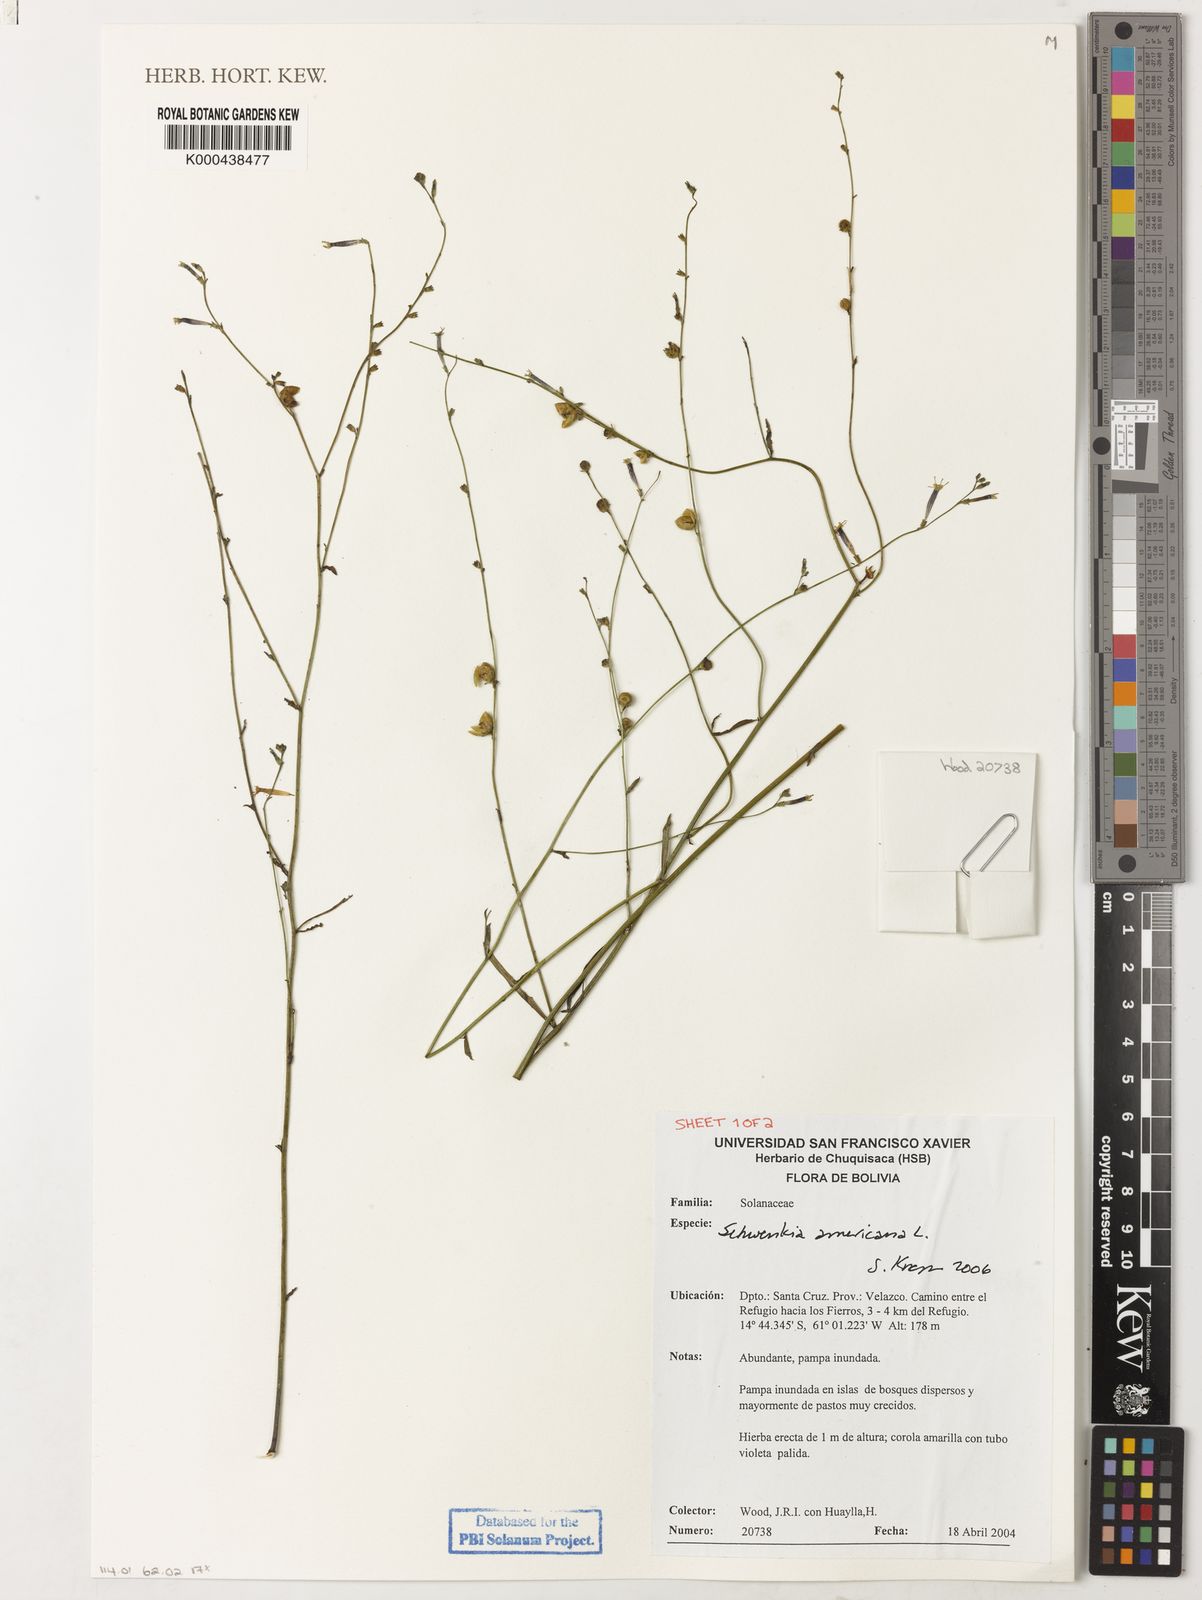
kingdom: Plantae
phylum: Tracheophyta
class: Magnoliopsida
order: Solanales
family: Solanaceae
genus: Schwenckia
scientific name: Schwenckia americana
